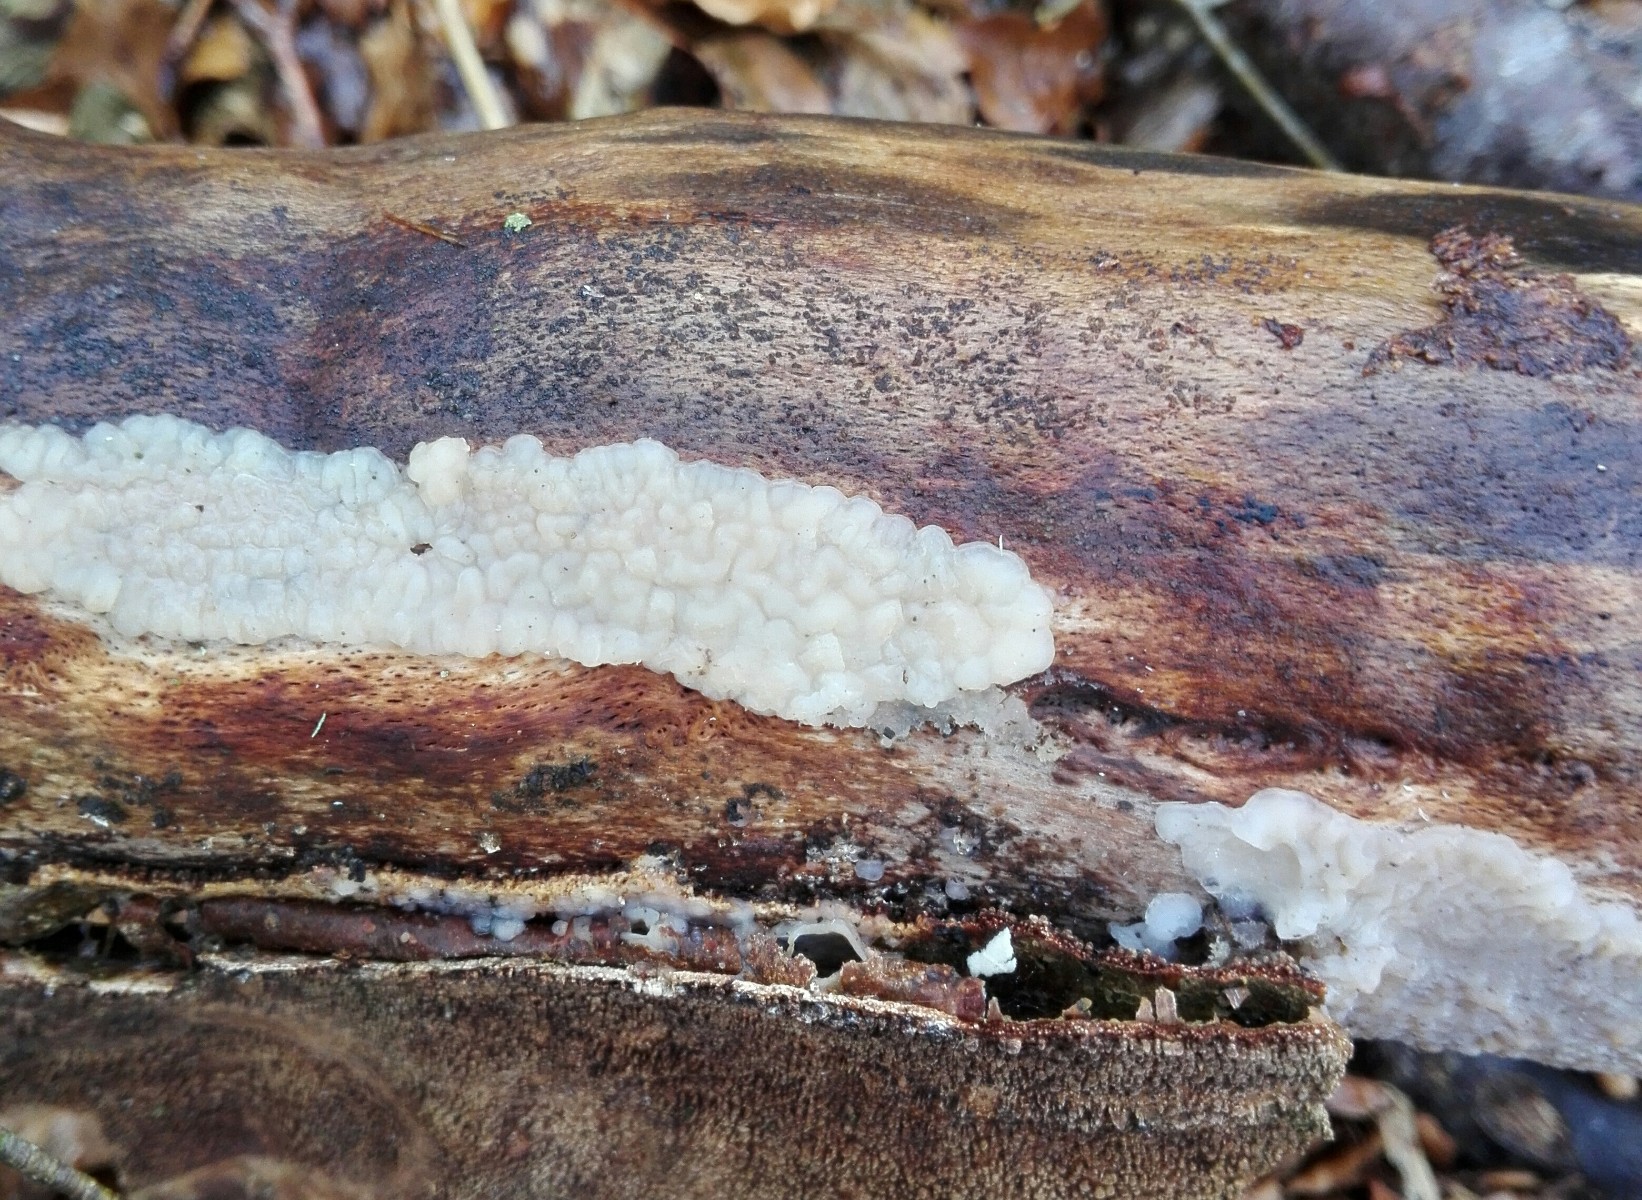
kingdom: Fungi
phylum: Basidiomycota
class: Agaricomycetes
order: Auriculariales
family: Auriculariaceae
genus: Exidia
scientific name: Exidia thuretiana
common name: hvidlig bævretop
